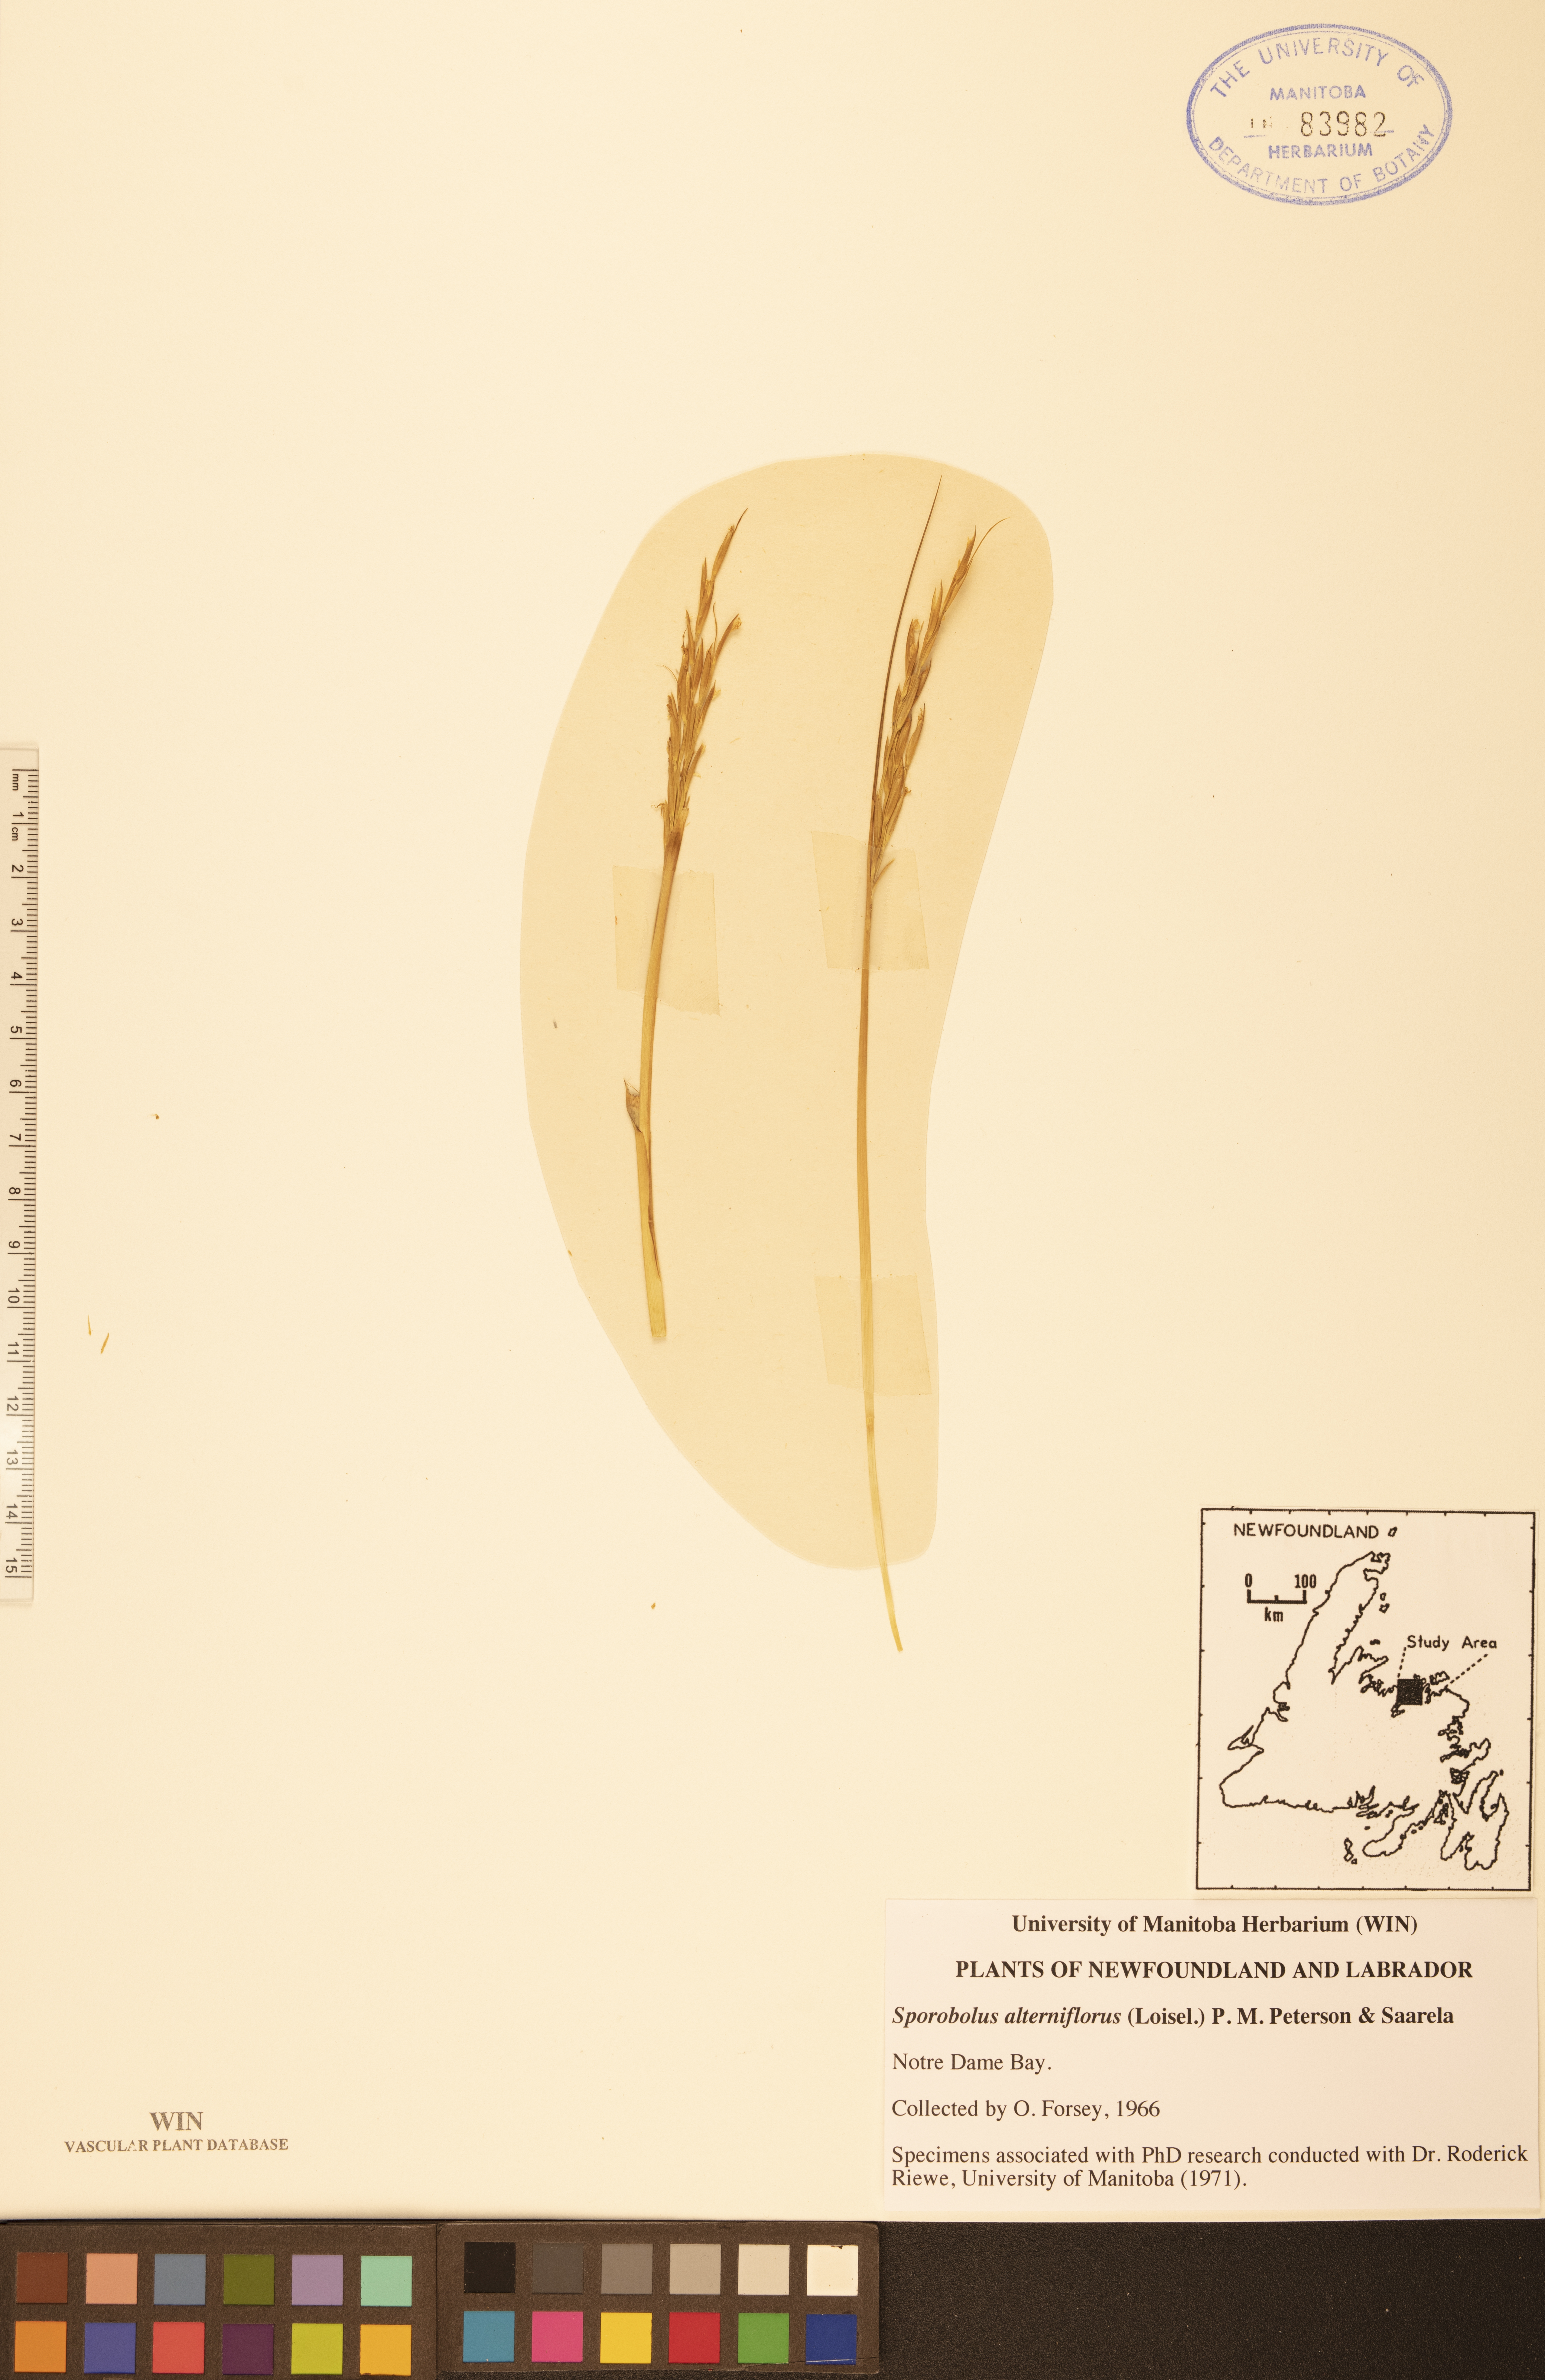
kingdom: Plantae
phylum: Tracheophyta
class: Liliopsida
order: Poales
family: Poaceae
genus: Sporobolus
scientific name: Sporobolus alterniflorus
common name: Atlantic cordgrass
